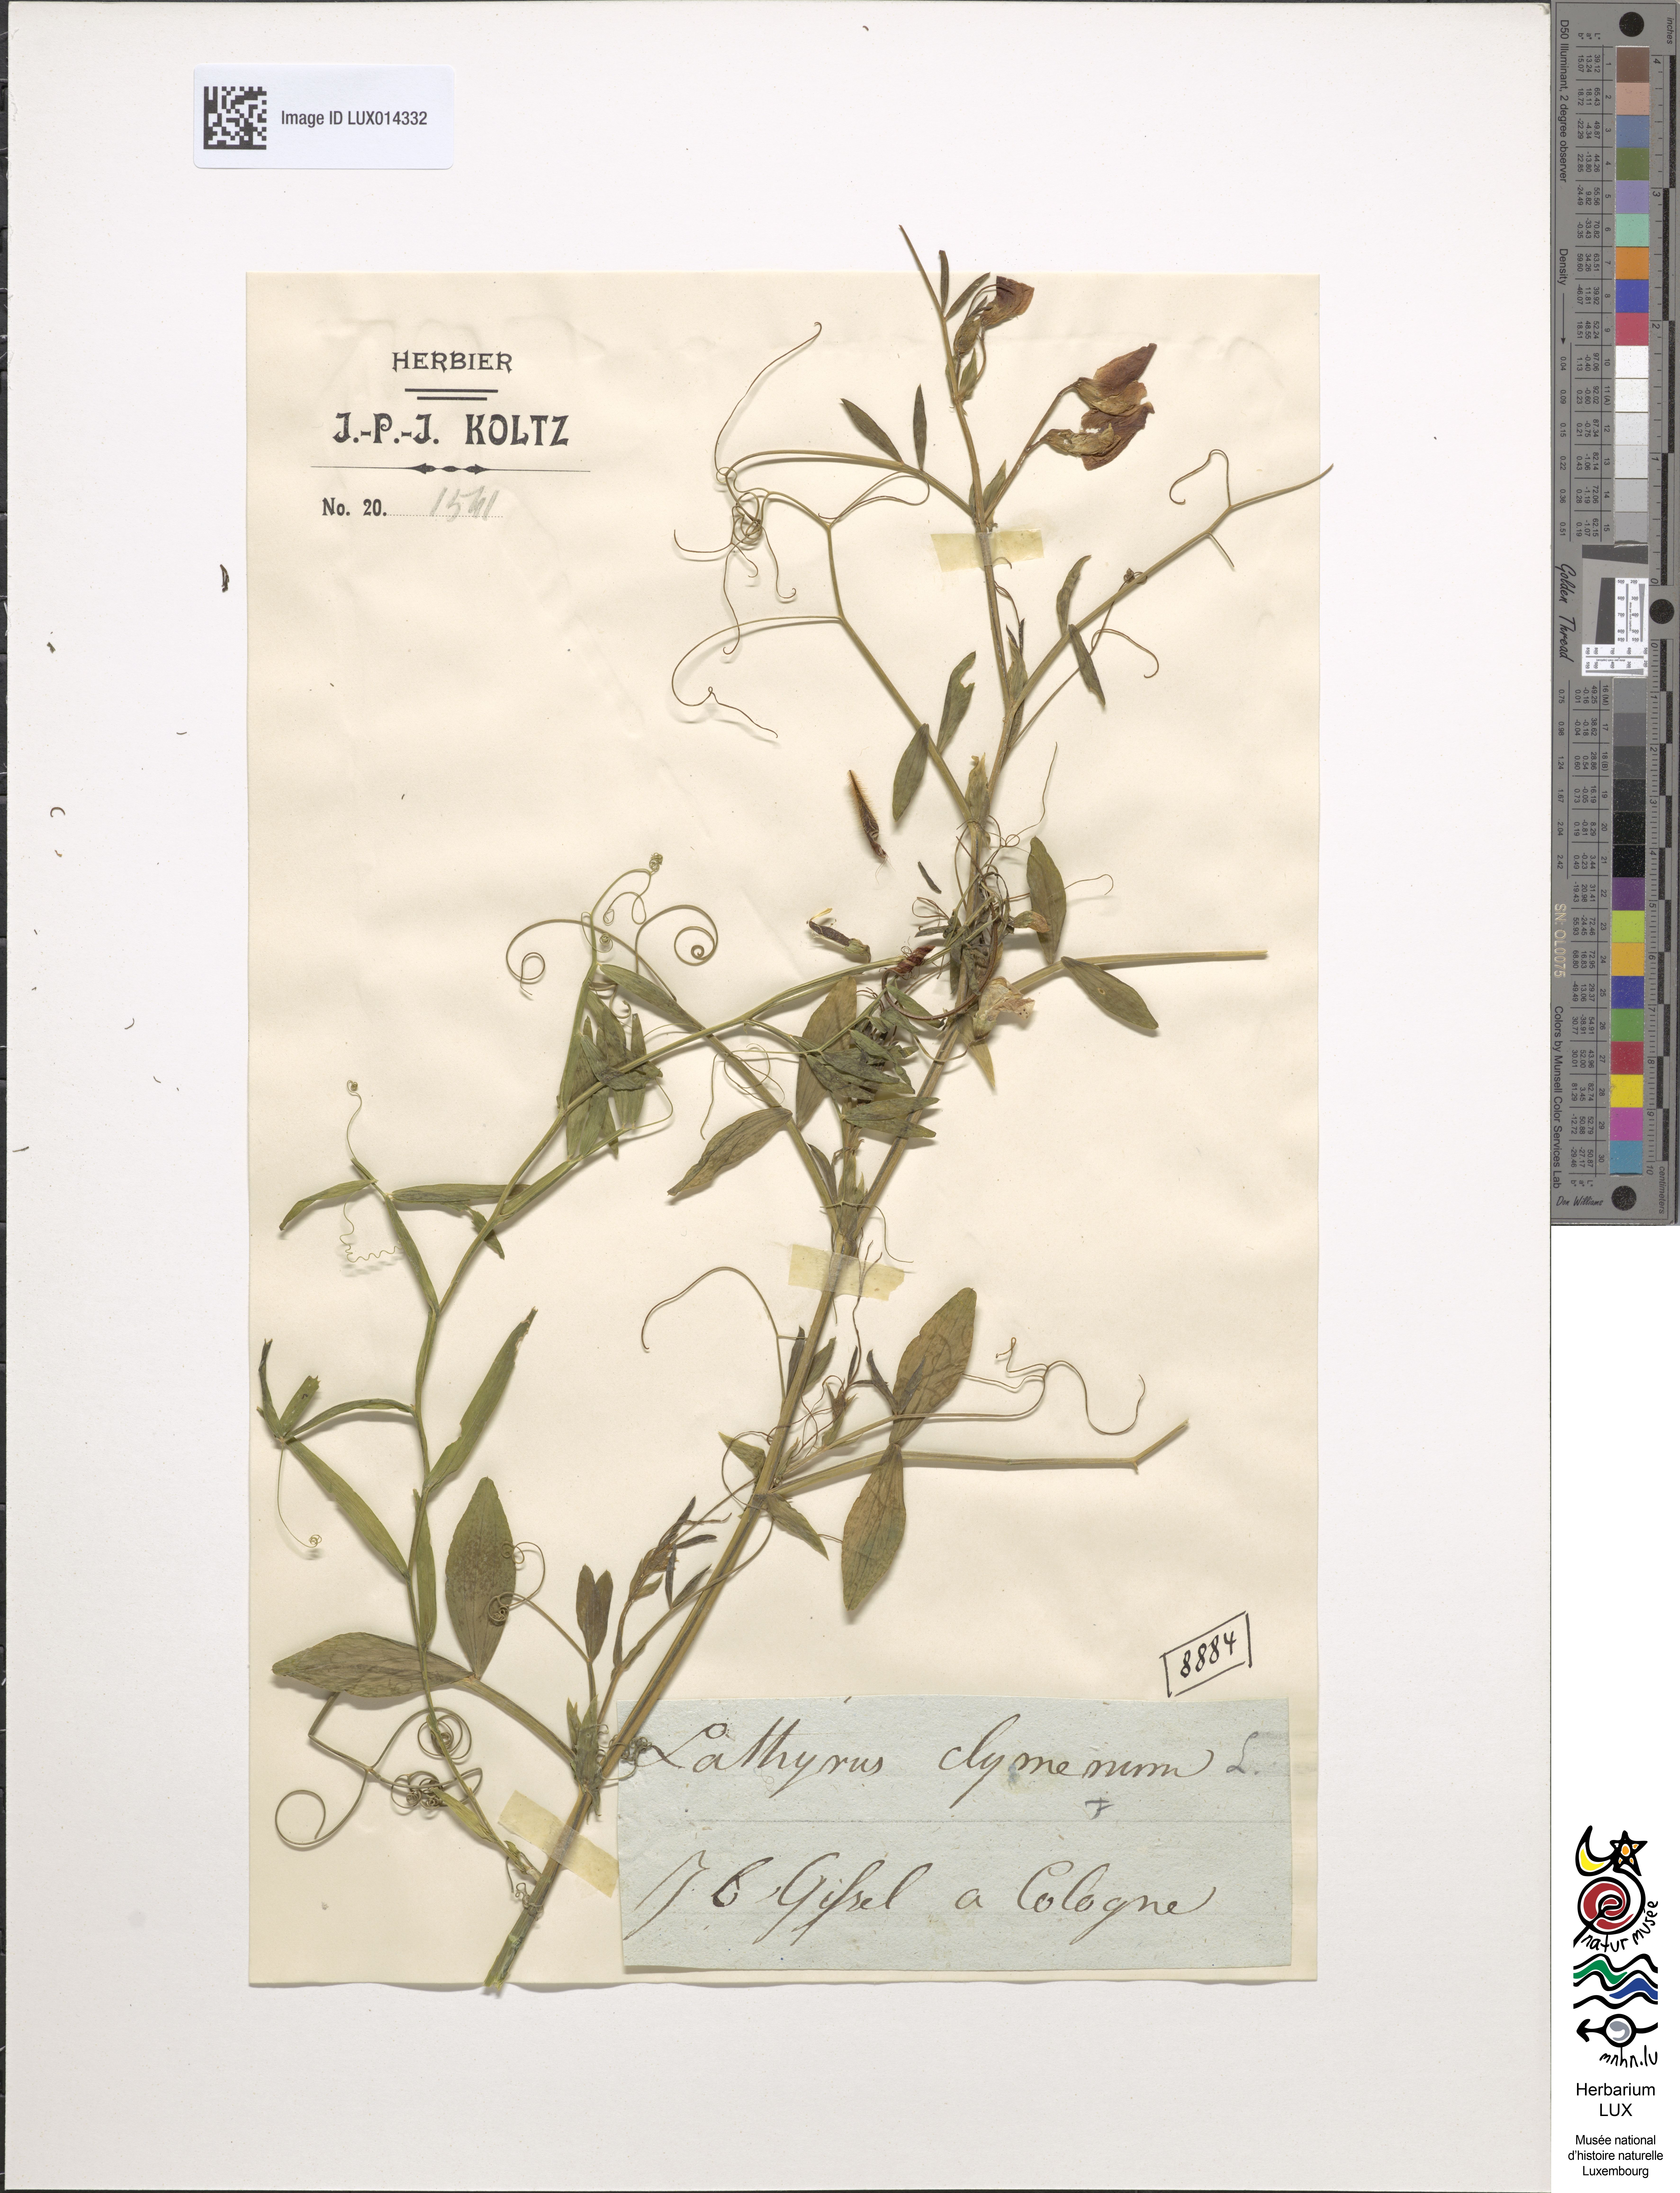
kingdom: Plantae
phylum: Tracheophyta
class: Magnoliopsida
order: Fabales
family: Fabaceae
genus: Lathyrus
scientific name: Lathyrus clymenum
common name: Spanish vetchling
